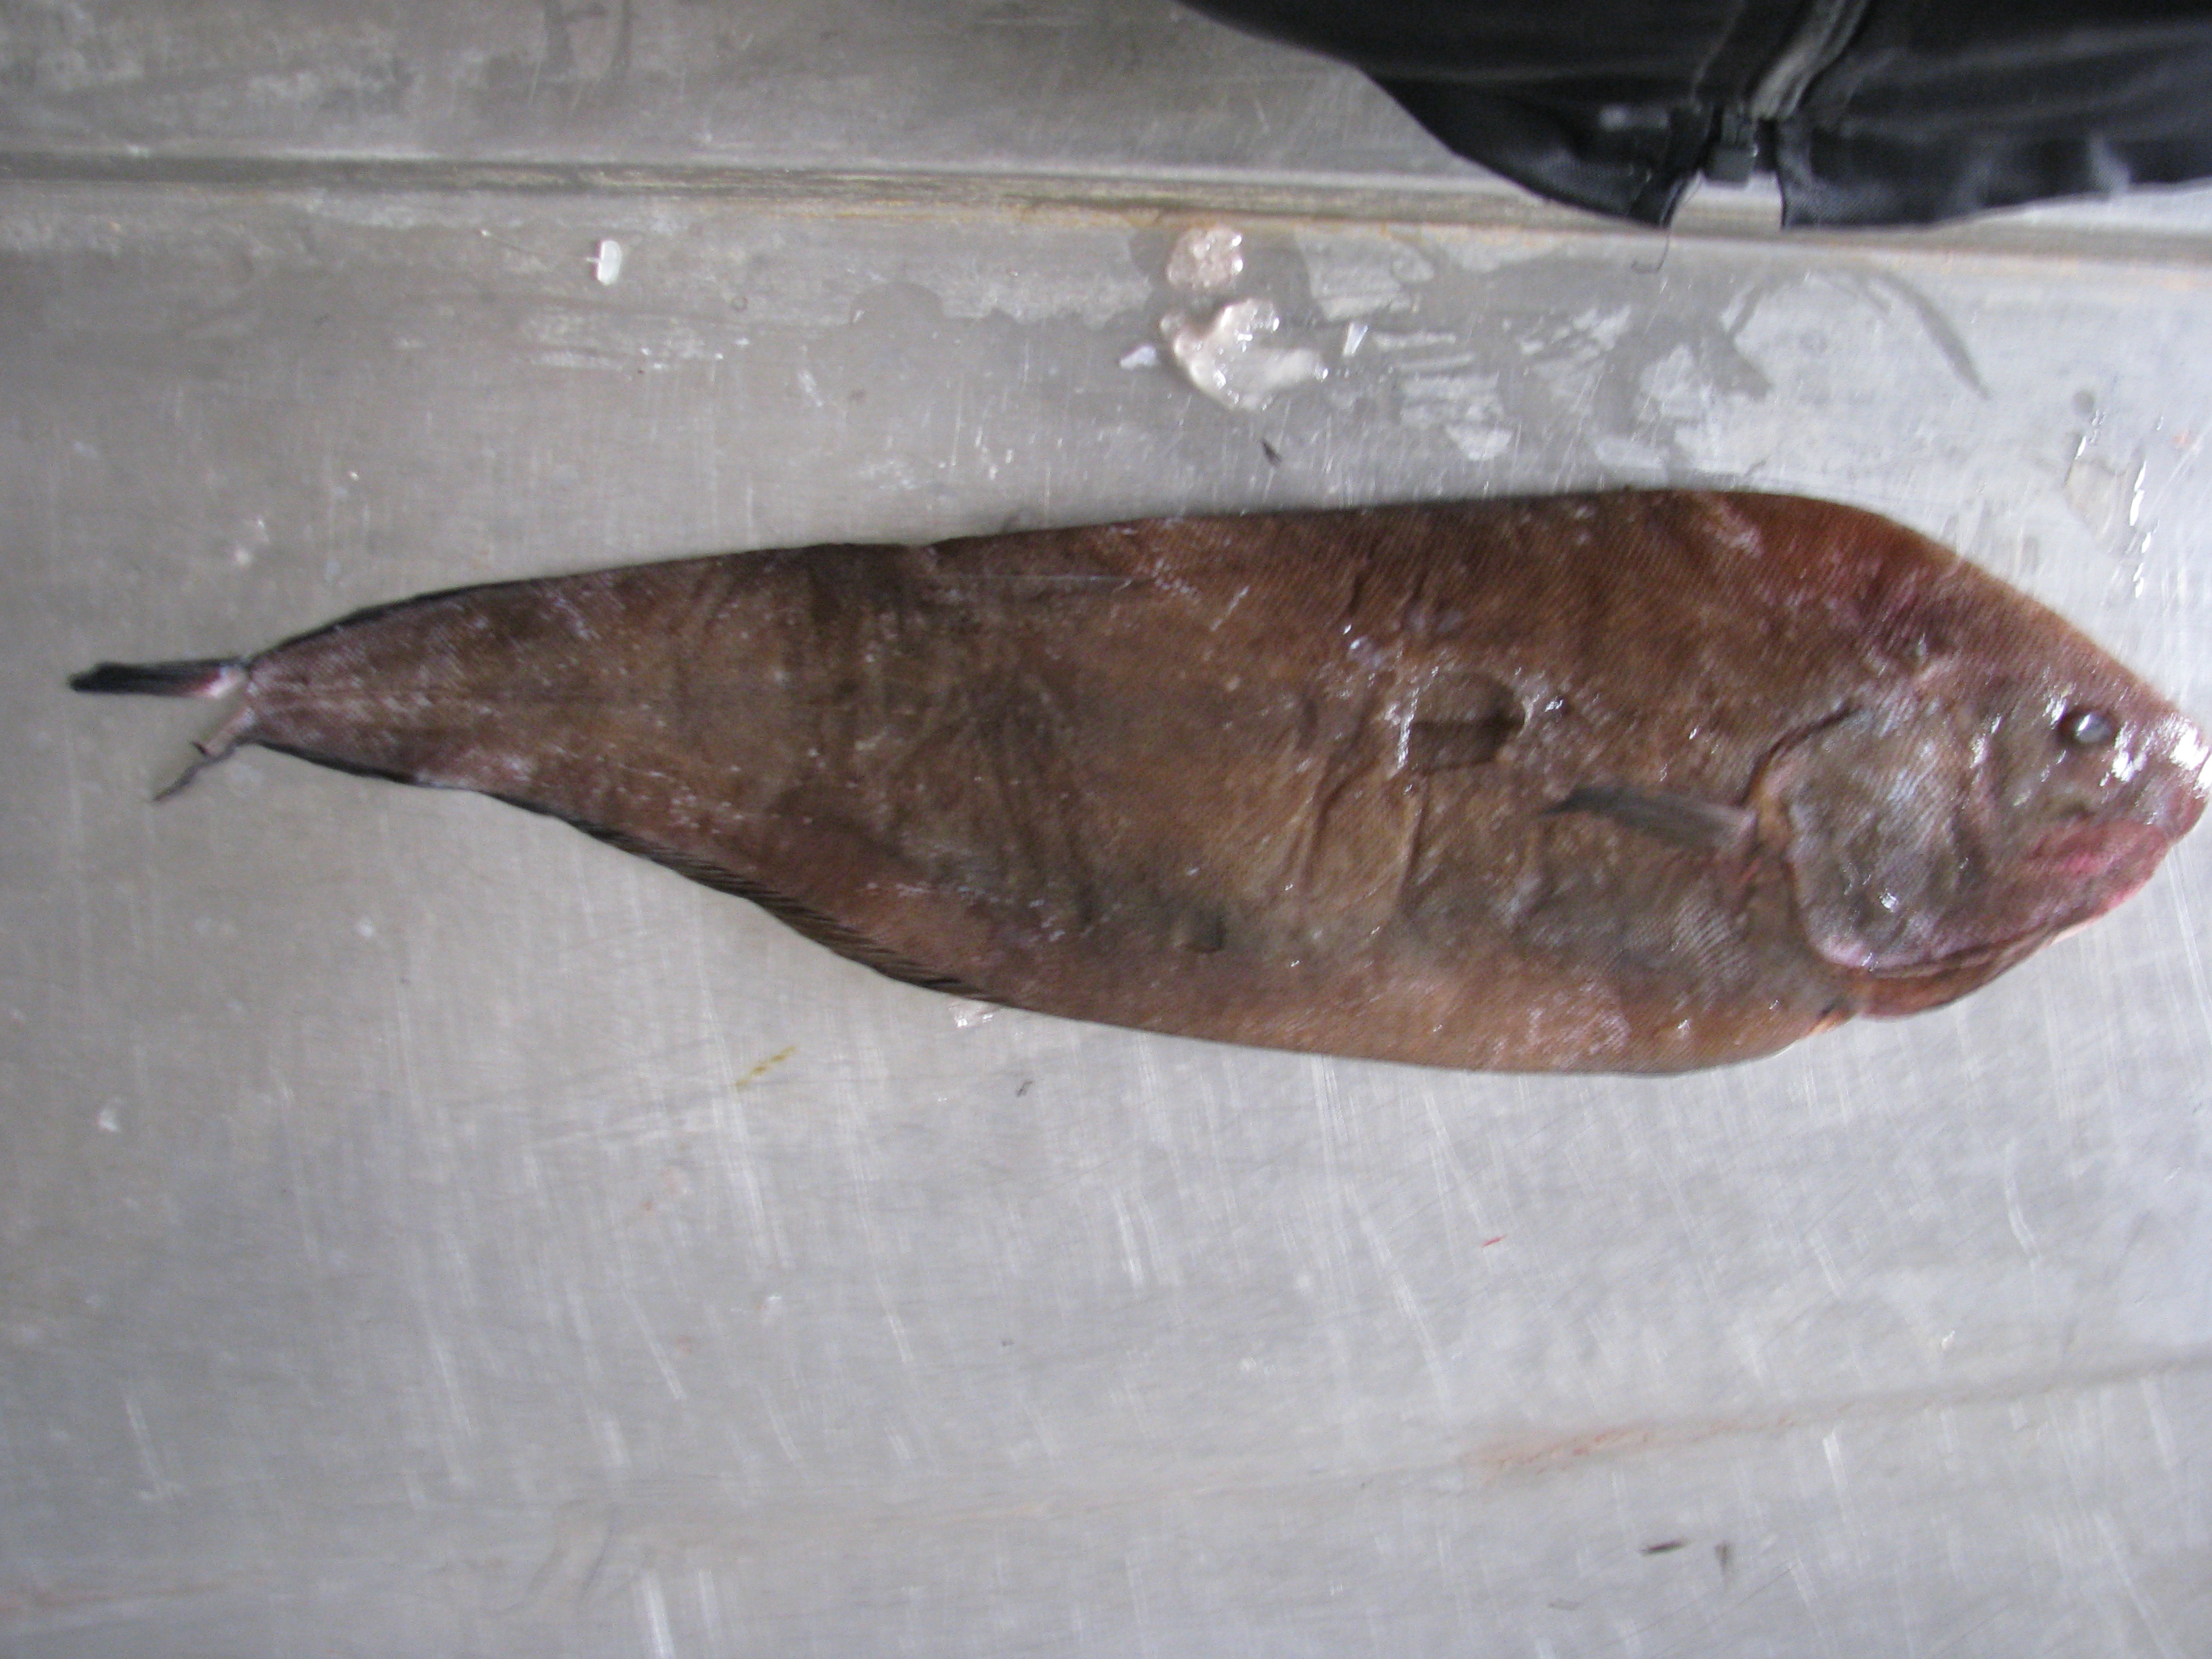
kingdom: Animalia
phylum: Chordata
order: Pleuronectiformes
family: Soleidae
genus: Austroglossus
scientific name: Austroglossus microlepis
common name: West coast sole
